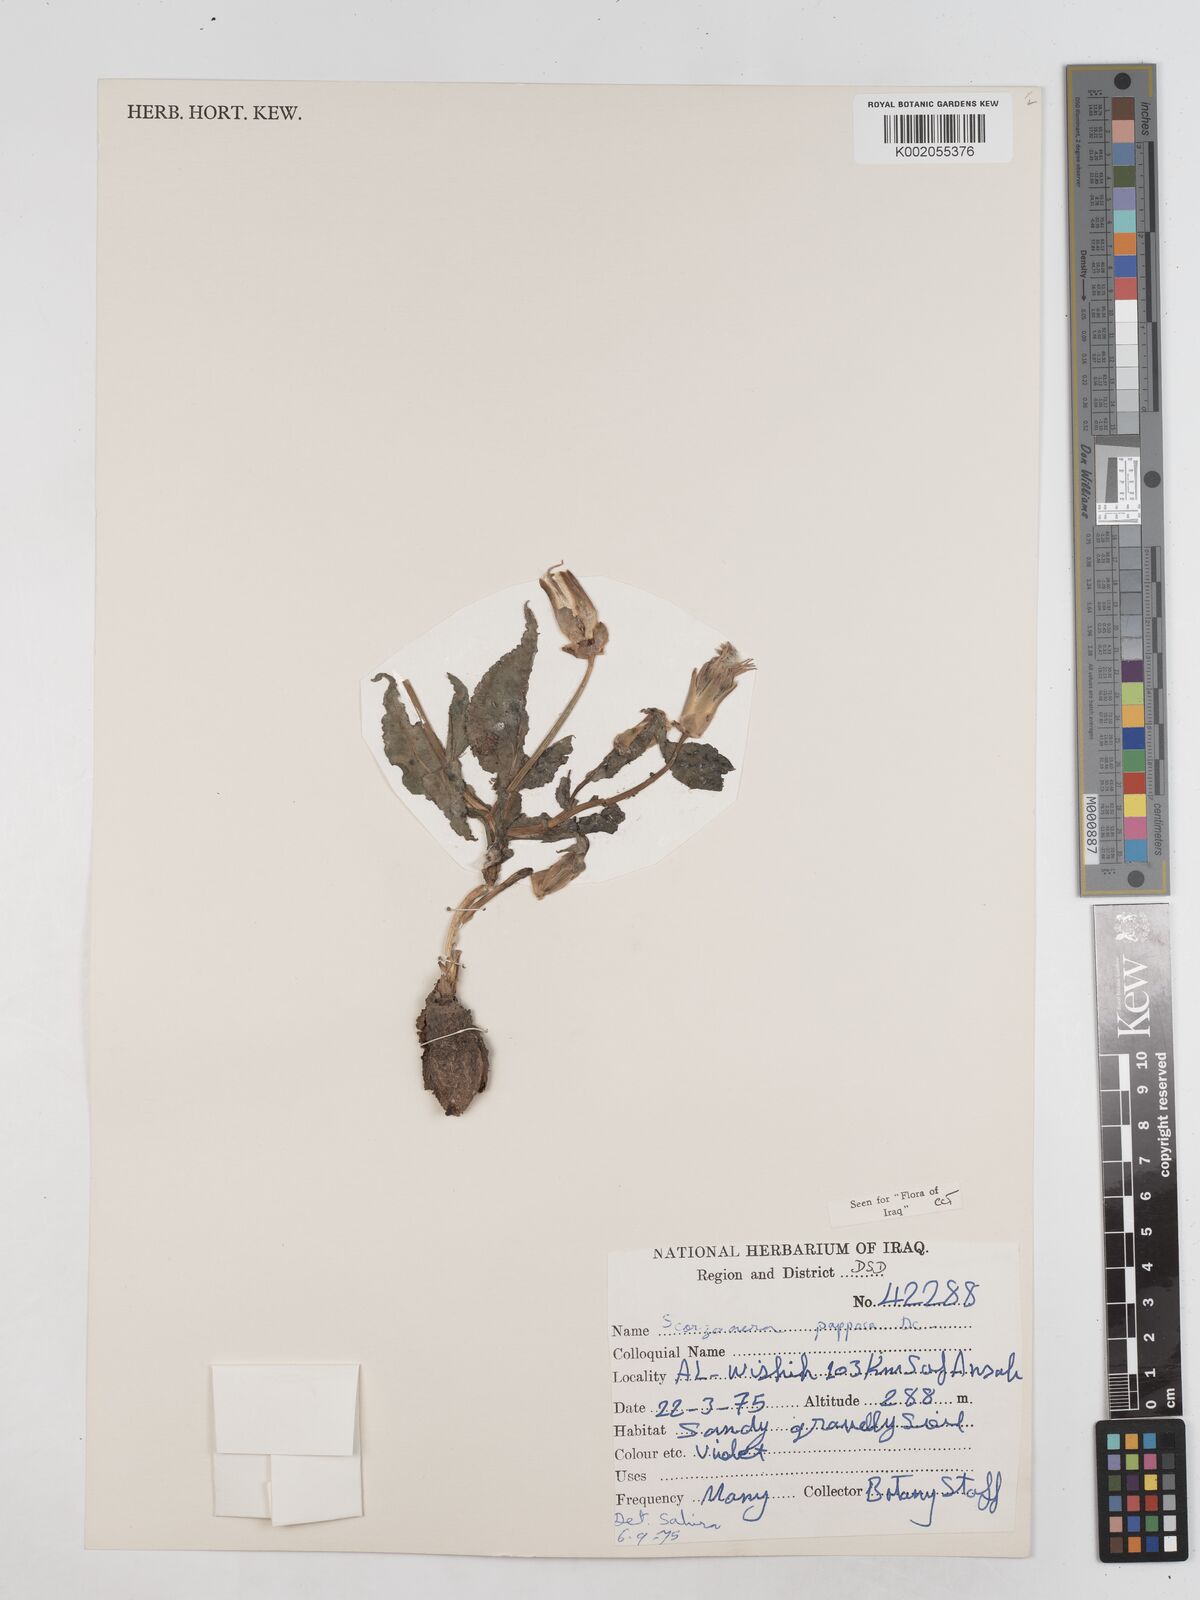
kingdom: Plantae
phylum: Tracheophyta
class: Magnoliopsida
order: Asterales
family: Asteraceae
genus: Pseudopodospermum
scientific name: Pseudopodospermum papposum
